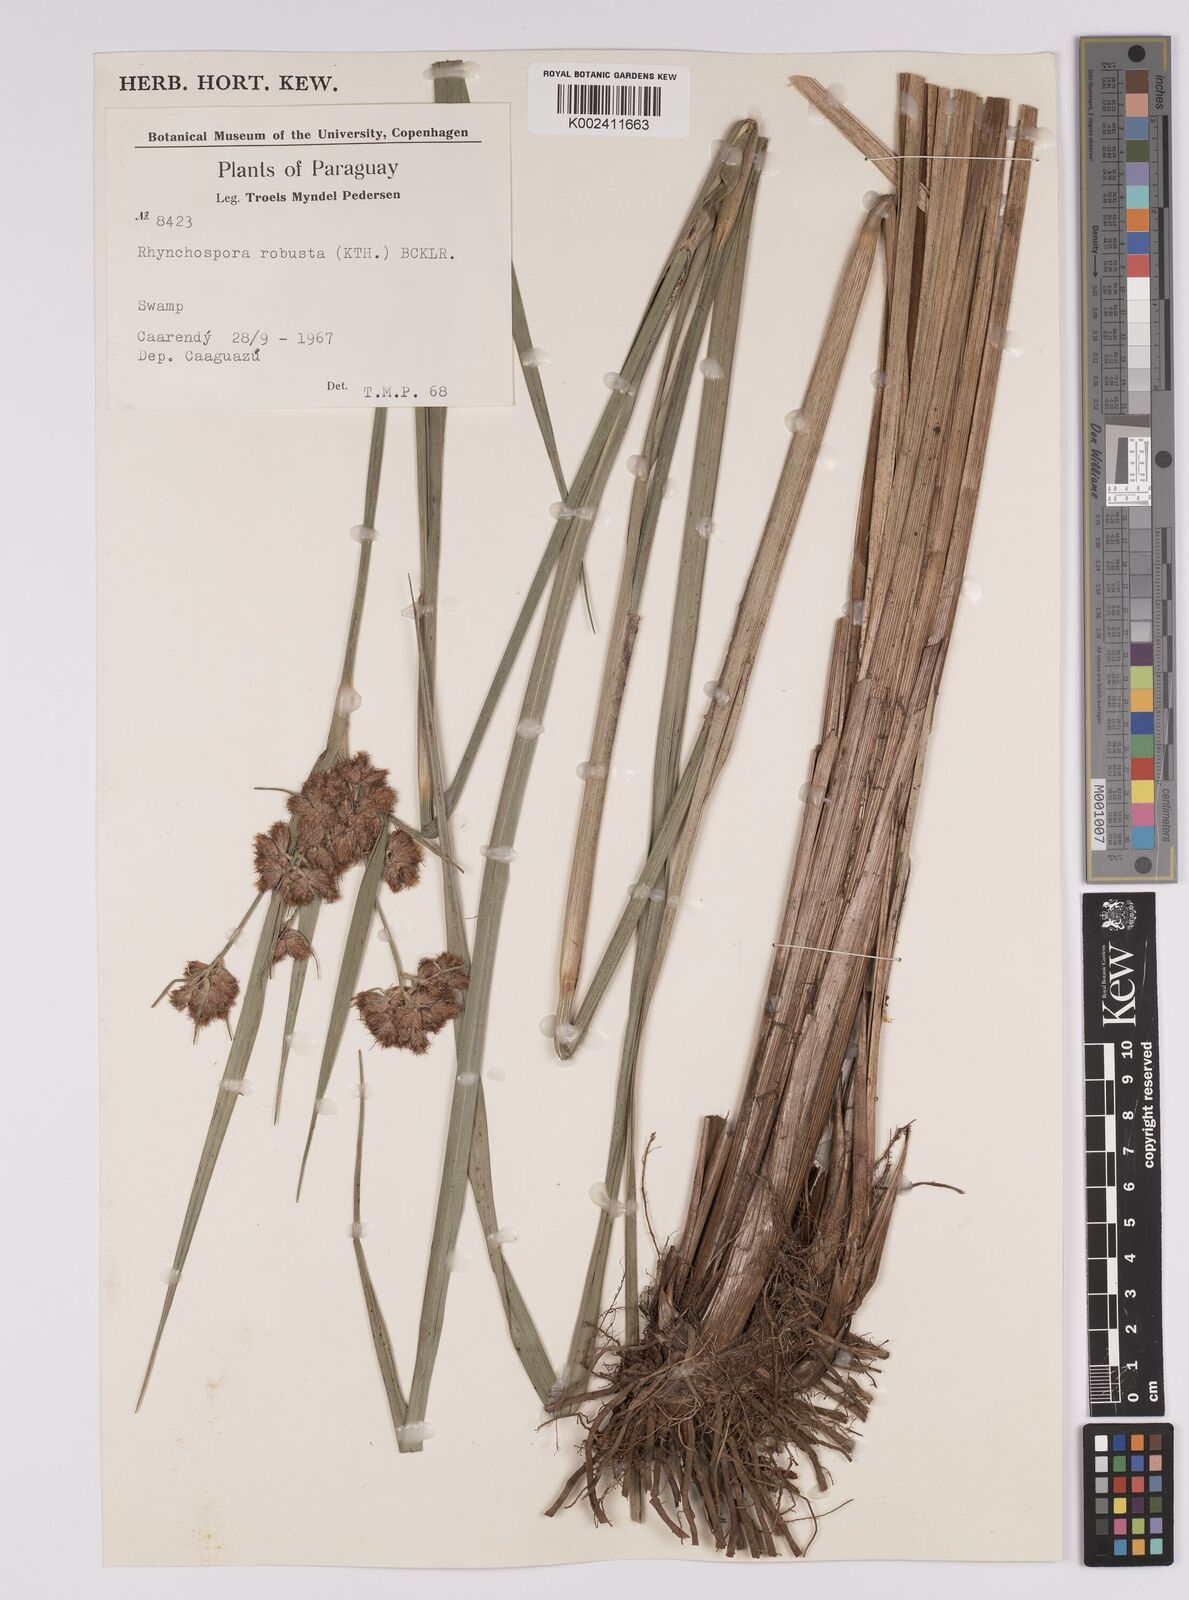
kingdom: Plantae
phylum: Tracheophyta
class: Liliopsida
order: Poales
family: Cyperaceae
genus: Rhynchospora
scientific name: Rhynchospora robusta
